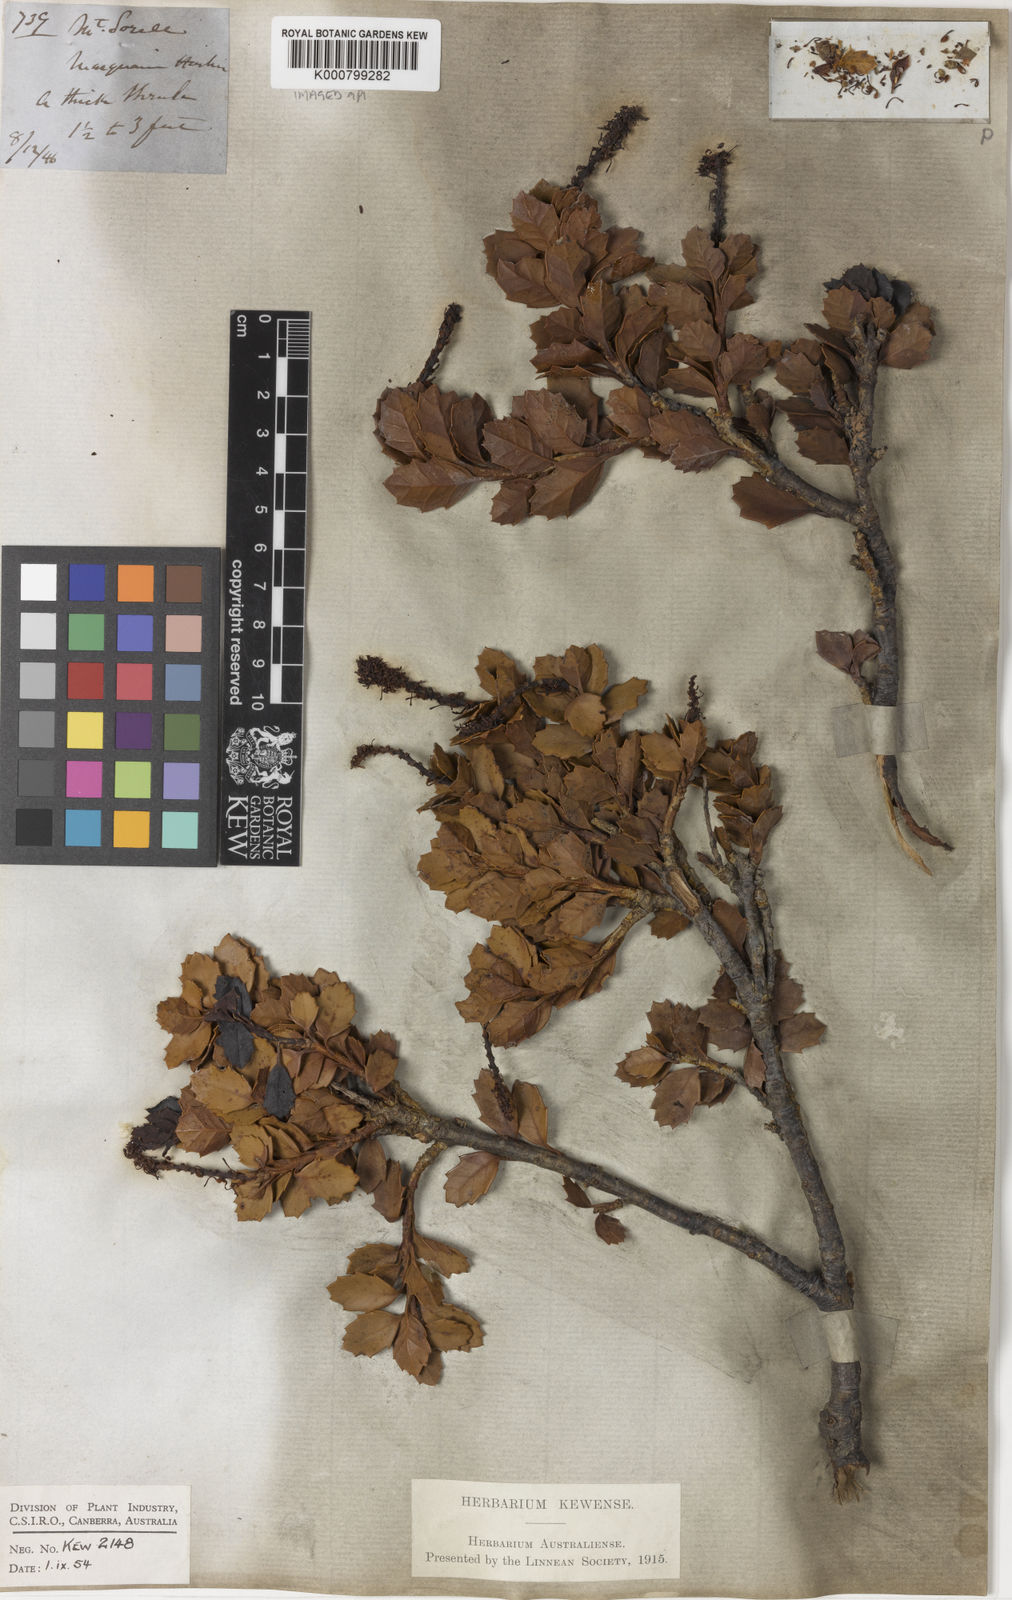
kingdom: Plantae
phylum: Tracheophyta
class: Magnoliopsida
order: Proteales
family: Proteaceae
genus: Orites
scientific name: Orites
